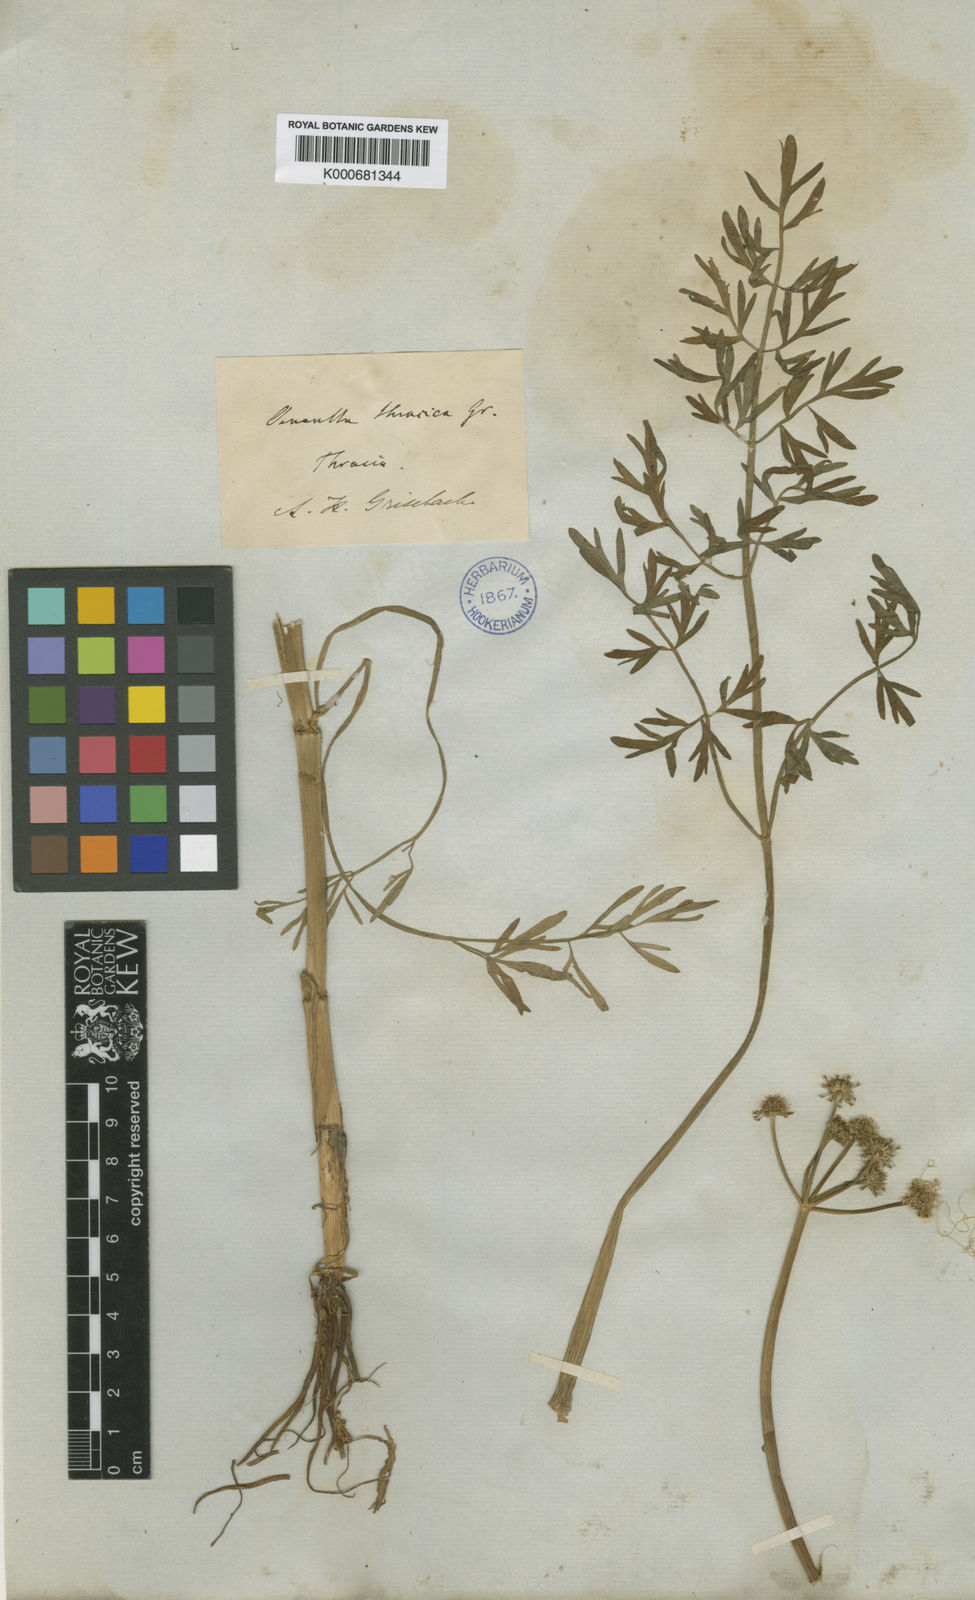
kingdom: Plantae
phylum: Tracheophyta
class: Magnoliopsida
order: Apiales
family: Apiaceae
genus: Oenanthe
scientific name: Oenanthe pimpinelloides
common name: Corky-fruited water-dropwort
